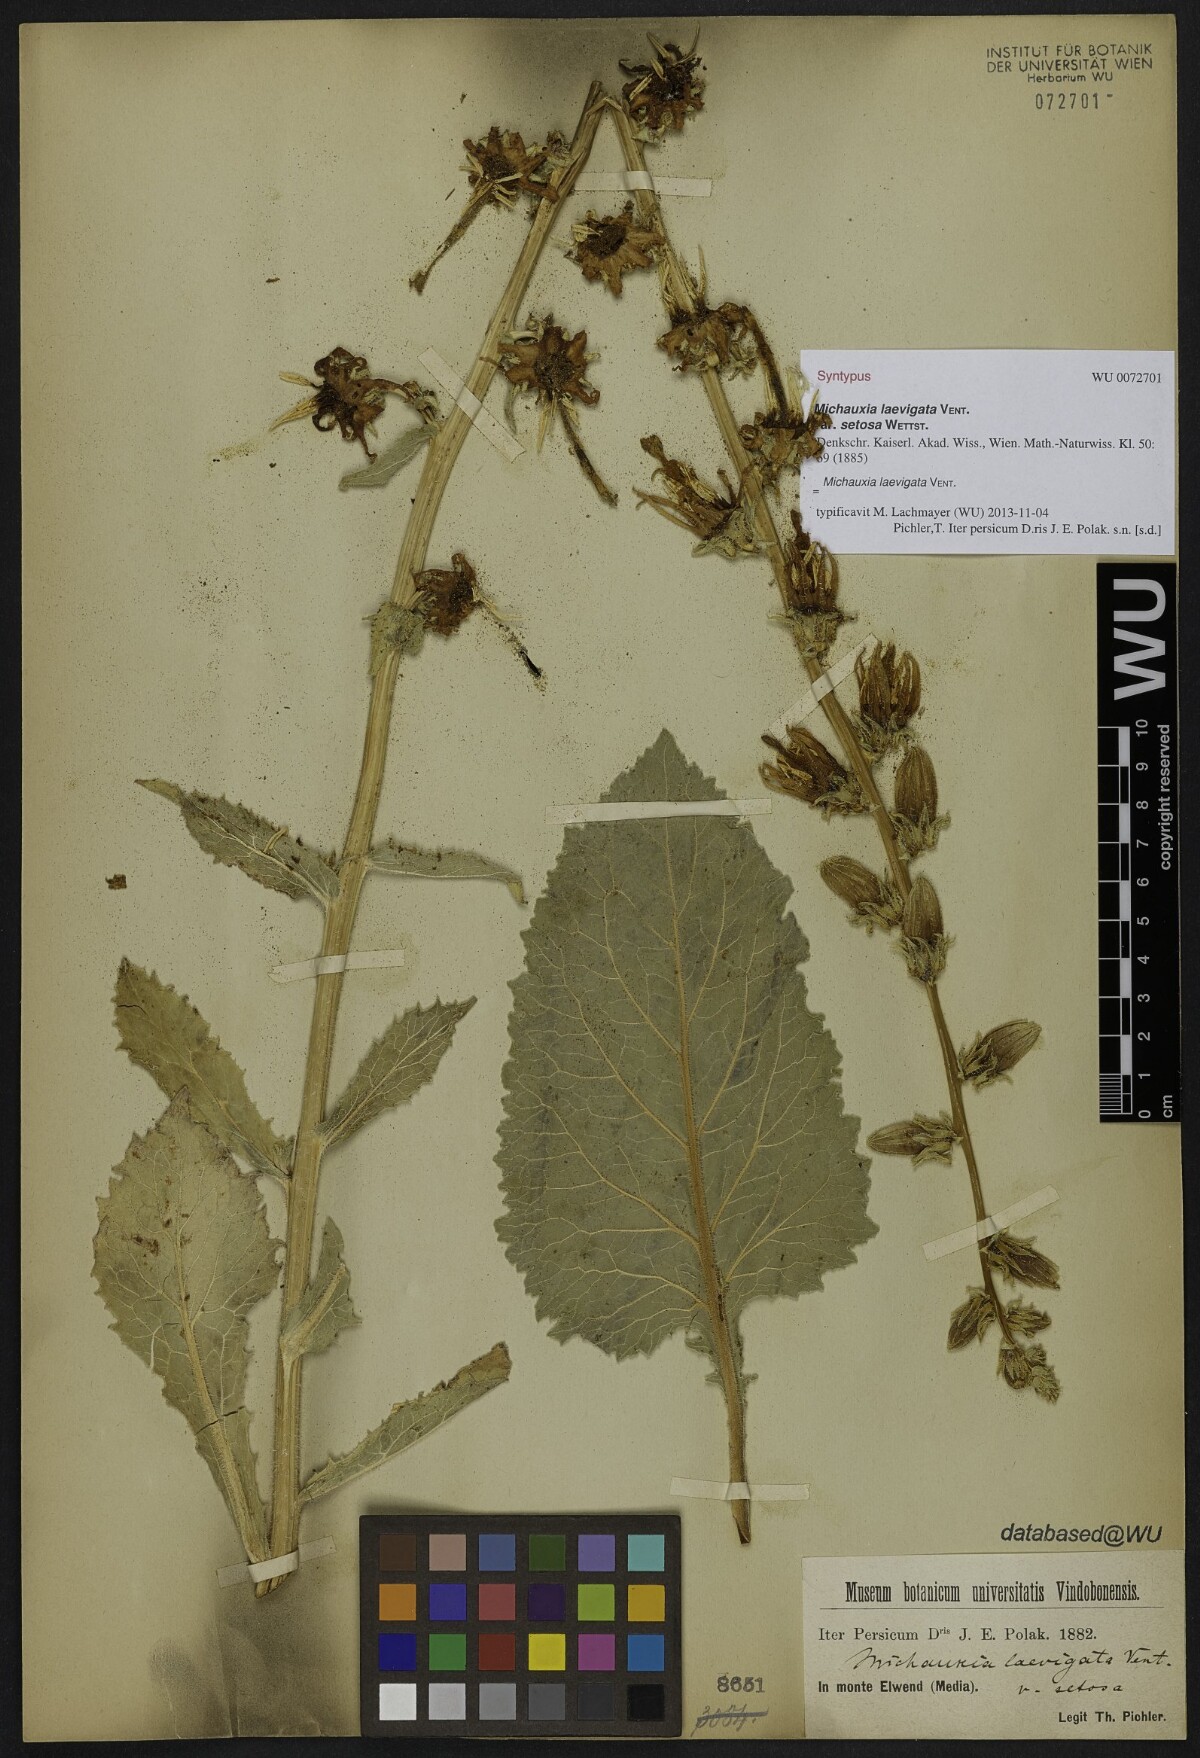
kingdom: Plantae
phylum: Tracheophyta
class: Magnoliopsida
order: Asterales
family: Campanulaceae
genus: Michauxia
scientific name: Michauxia laevigata
